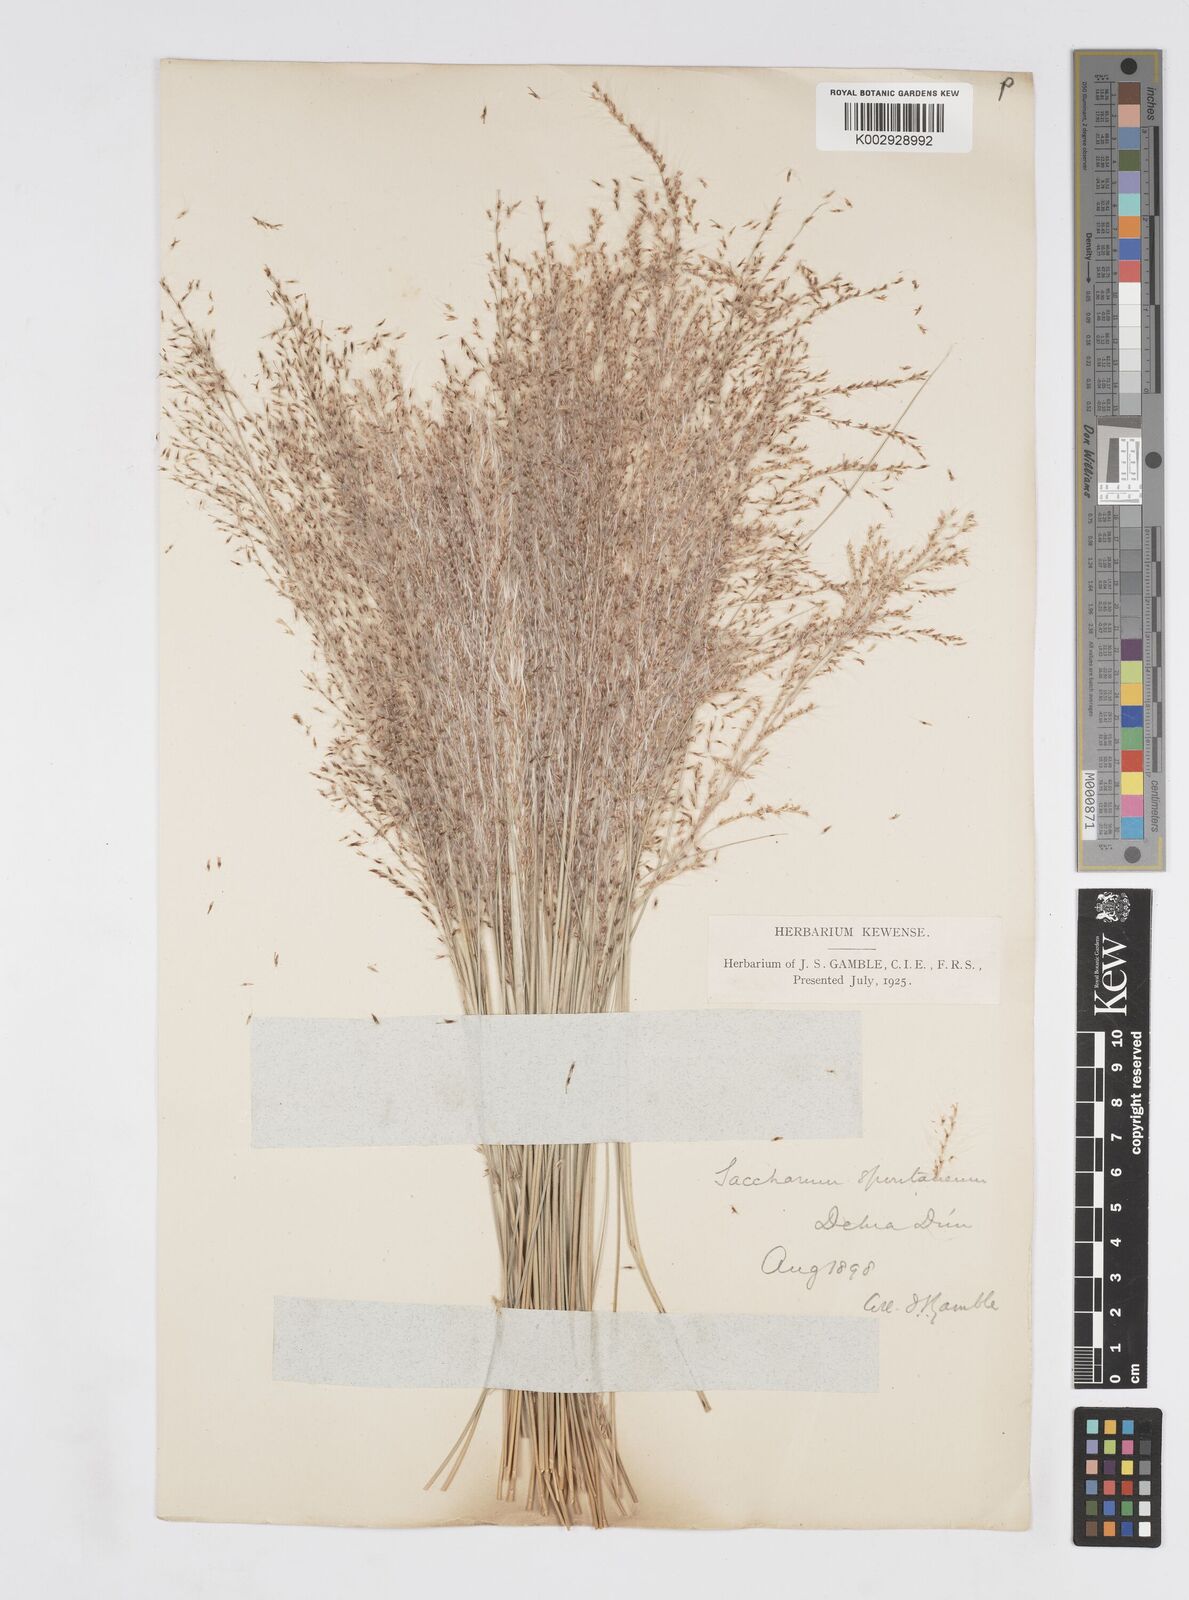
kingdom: Plantae
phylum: Tracheophyta
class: Liliopsida
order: Poales
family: Poaceae
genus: Saccharum
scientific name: Saccharum spontaneum
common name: Wild sugarcane
